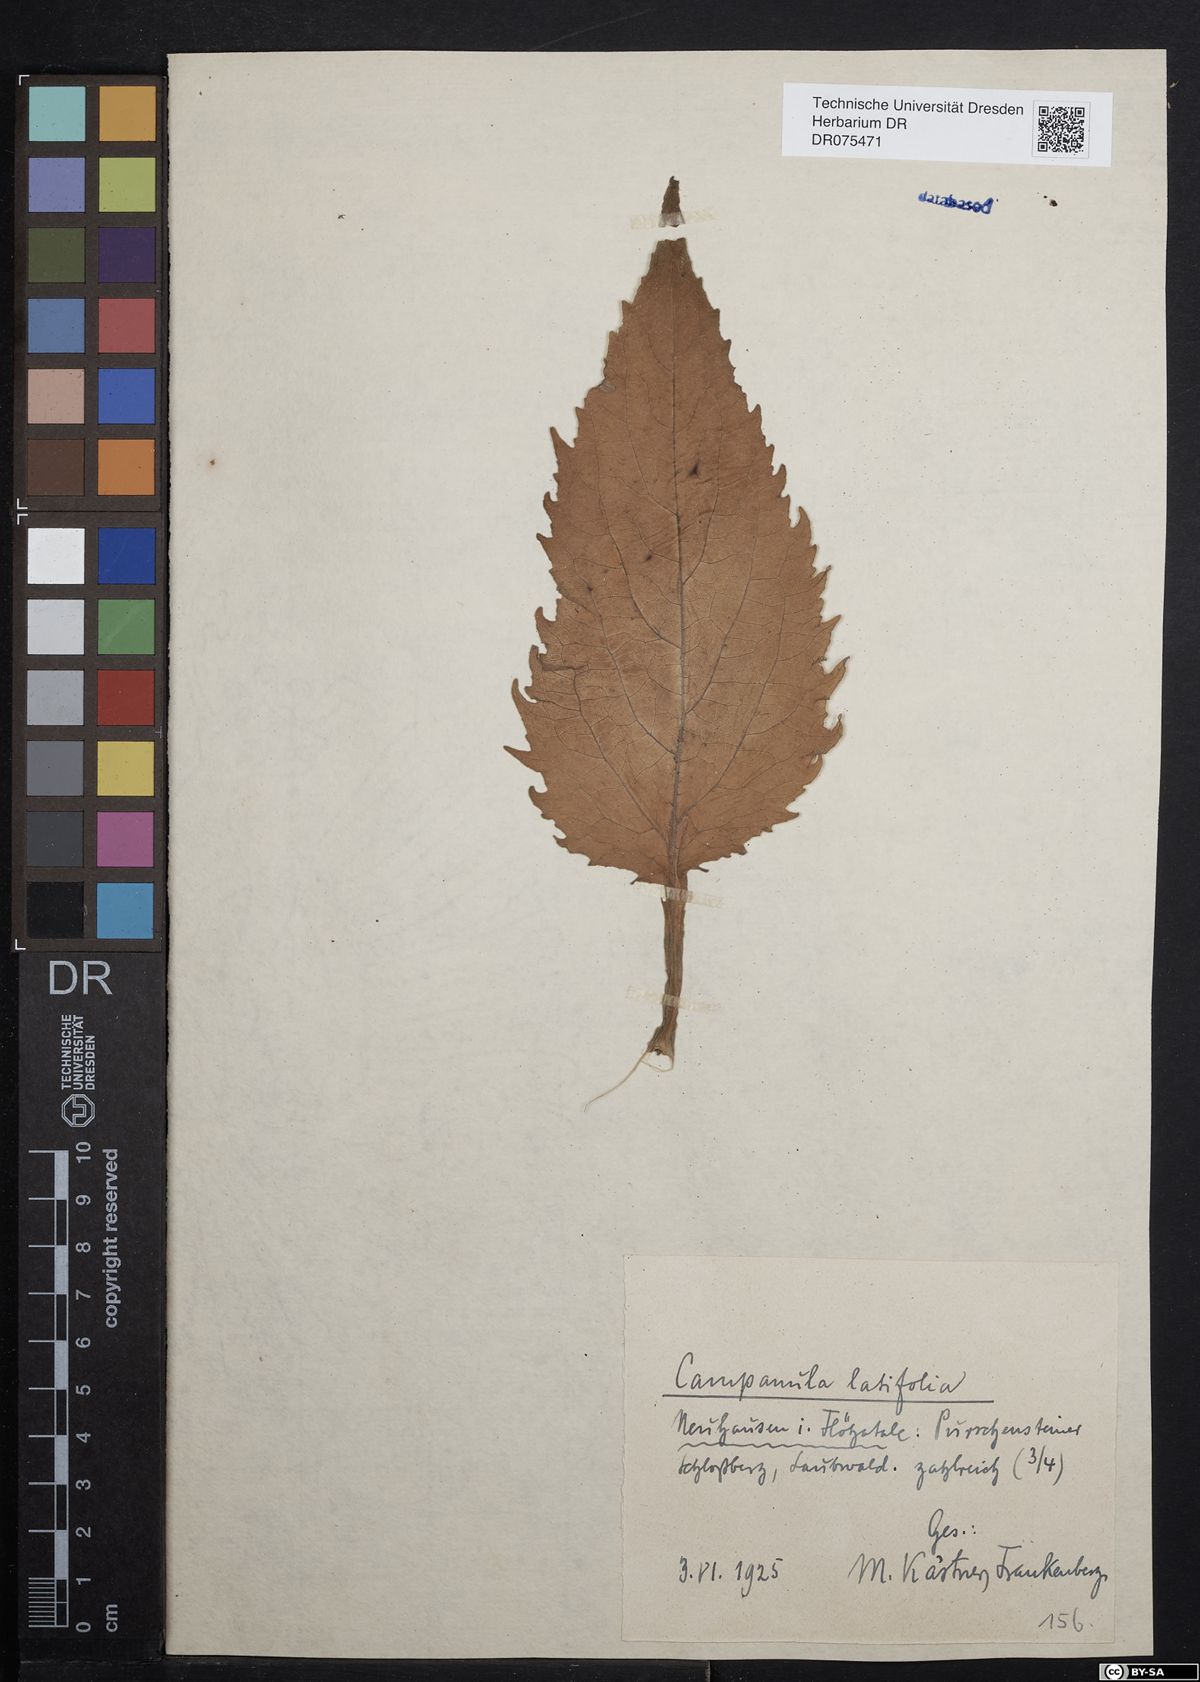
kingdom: Plantae
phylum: Tracheophyta
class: Magnoliopsida
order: Asterales
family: Campanulaceae
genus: Campanula
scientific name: Campanula latifolia
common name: Giant bellflower
